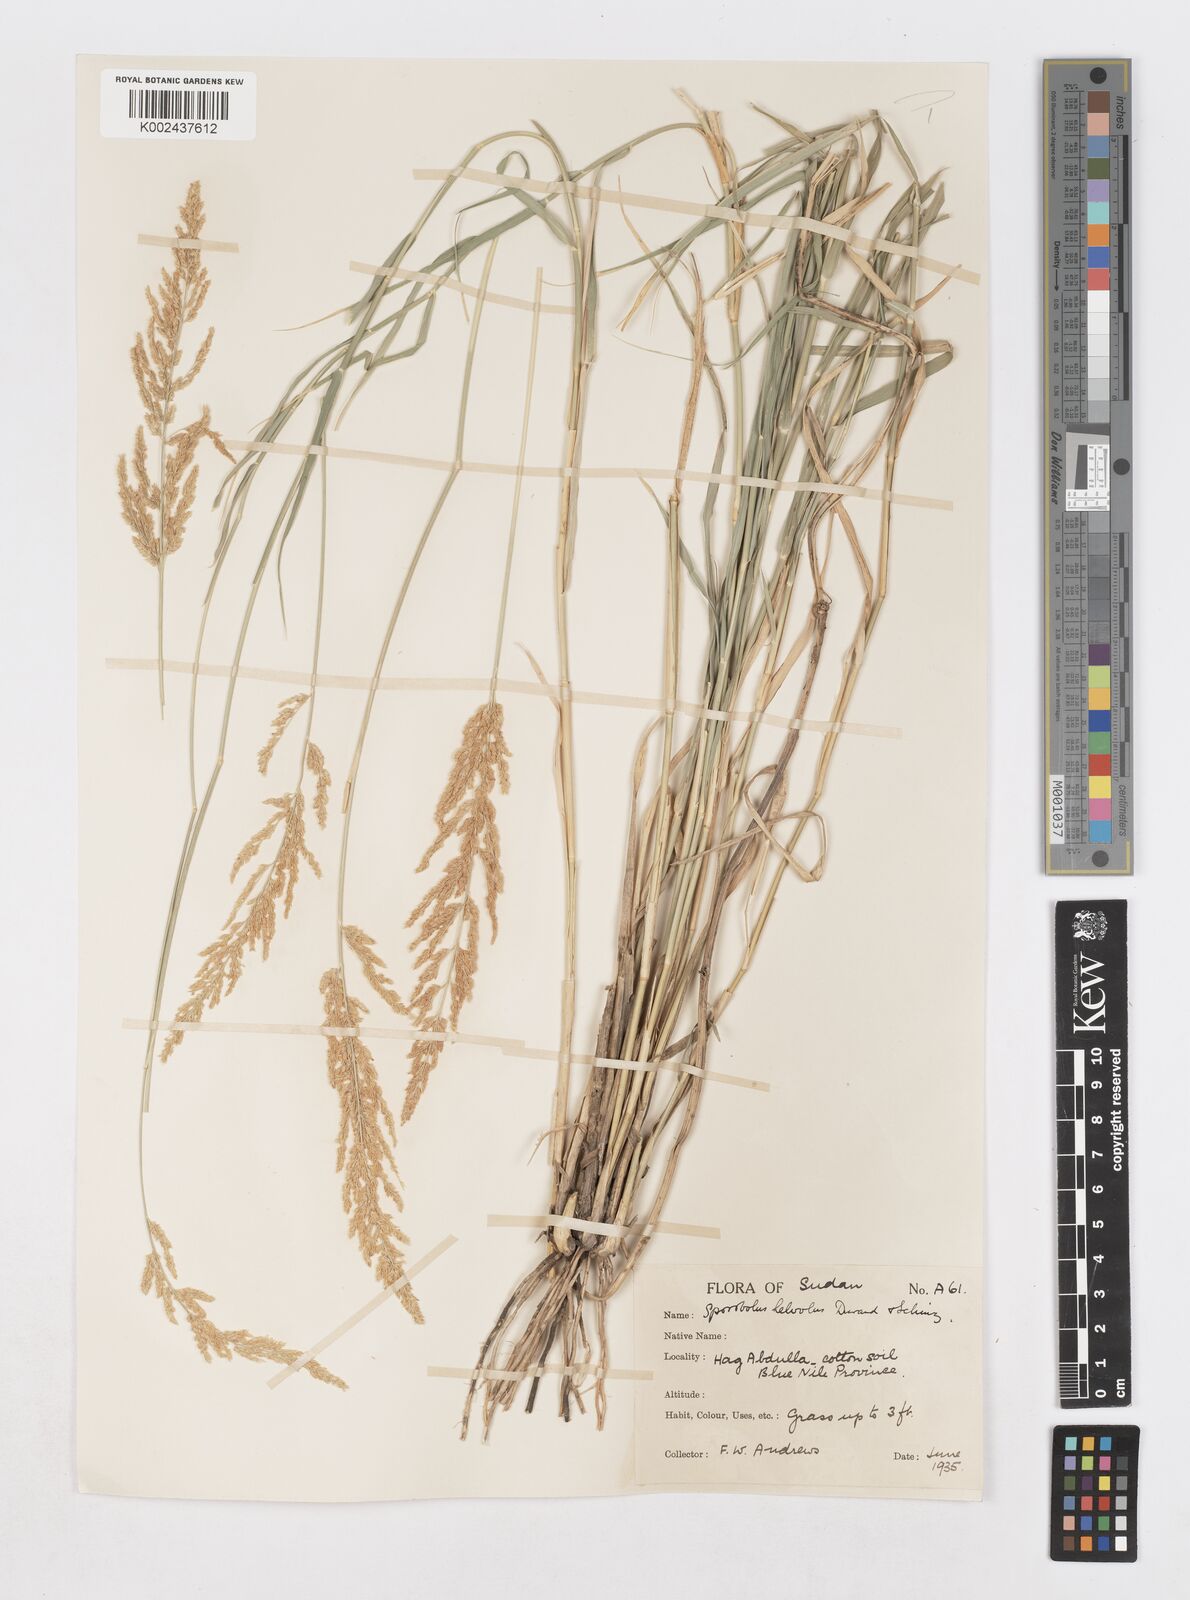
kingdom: Plantae
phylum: Tracheophyta
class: Liliopsida
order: Poales
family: Poaceae
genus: Sporobolus
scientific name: Sporobolus helvolus
